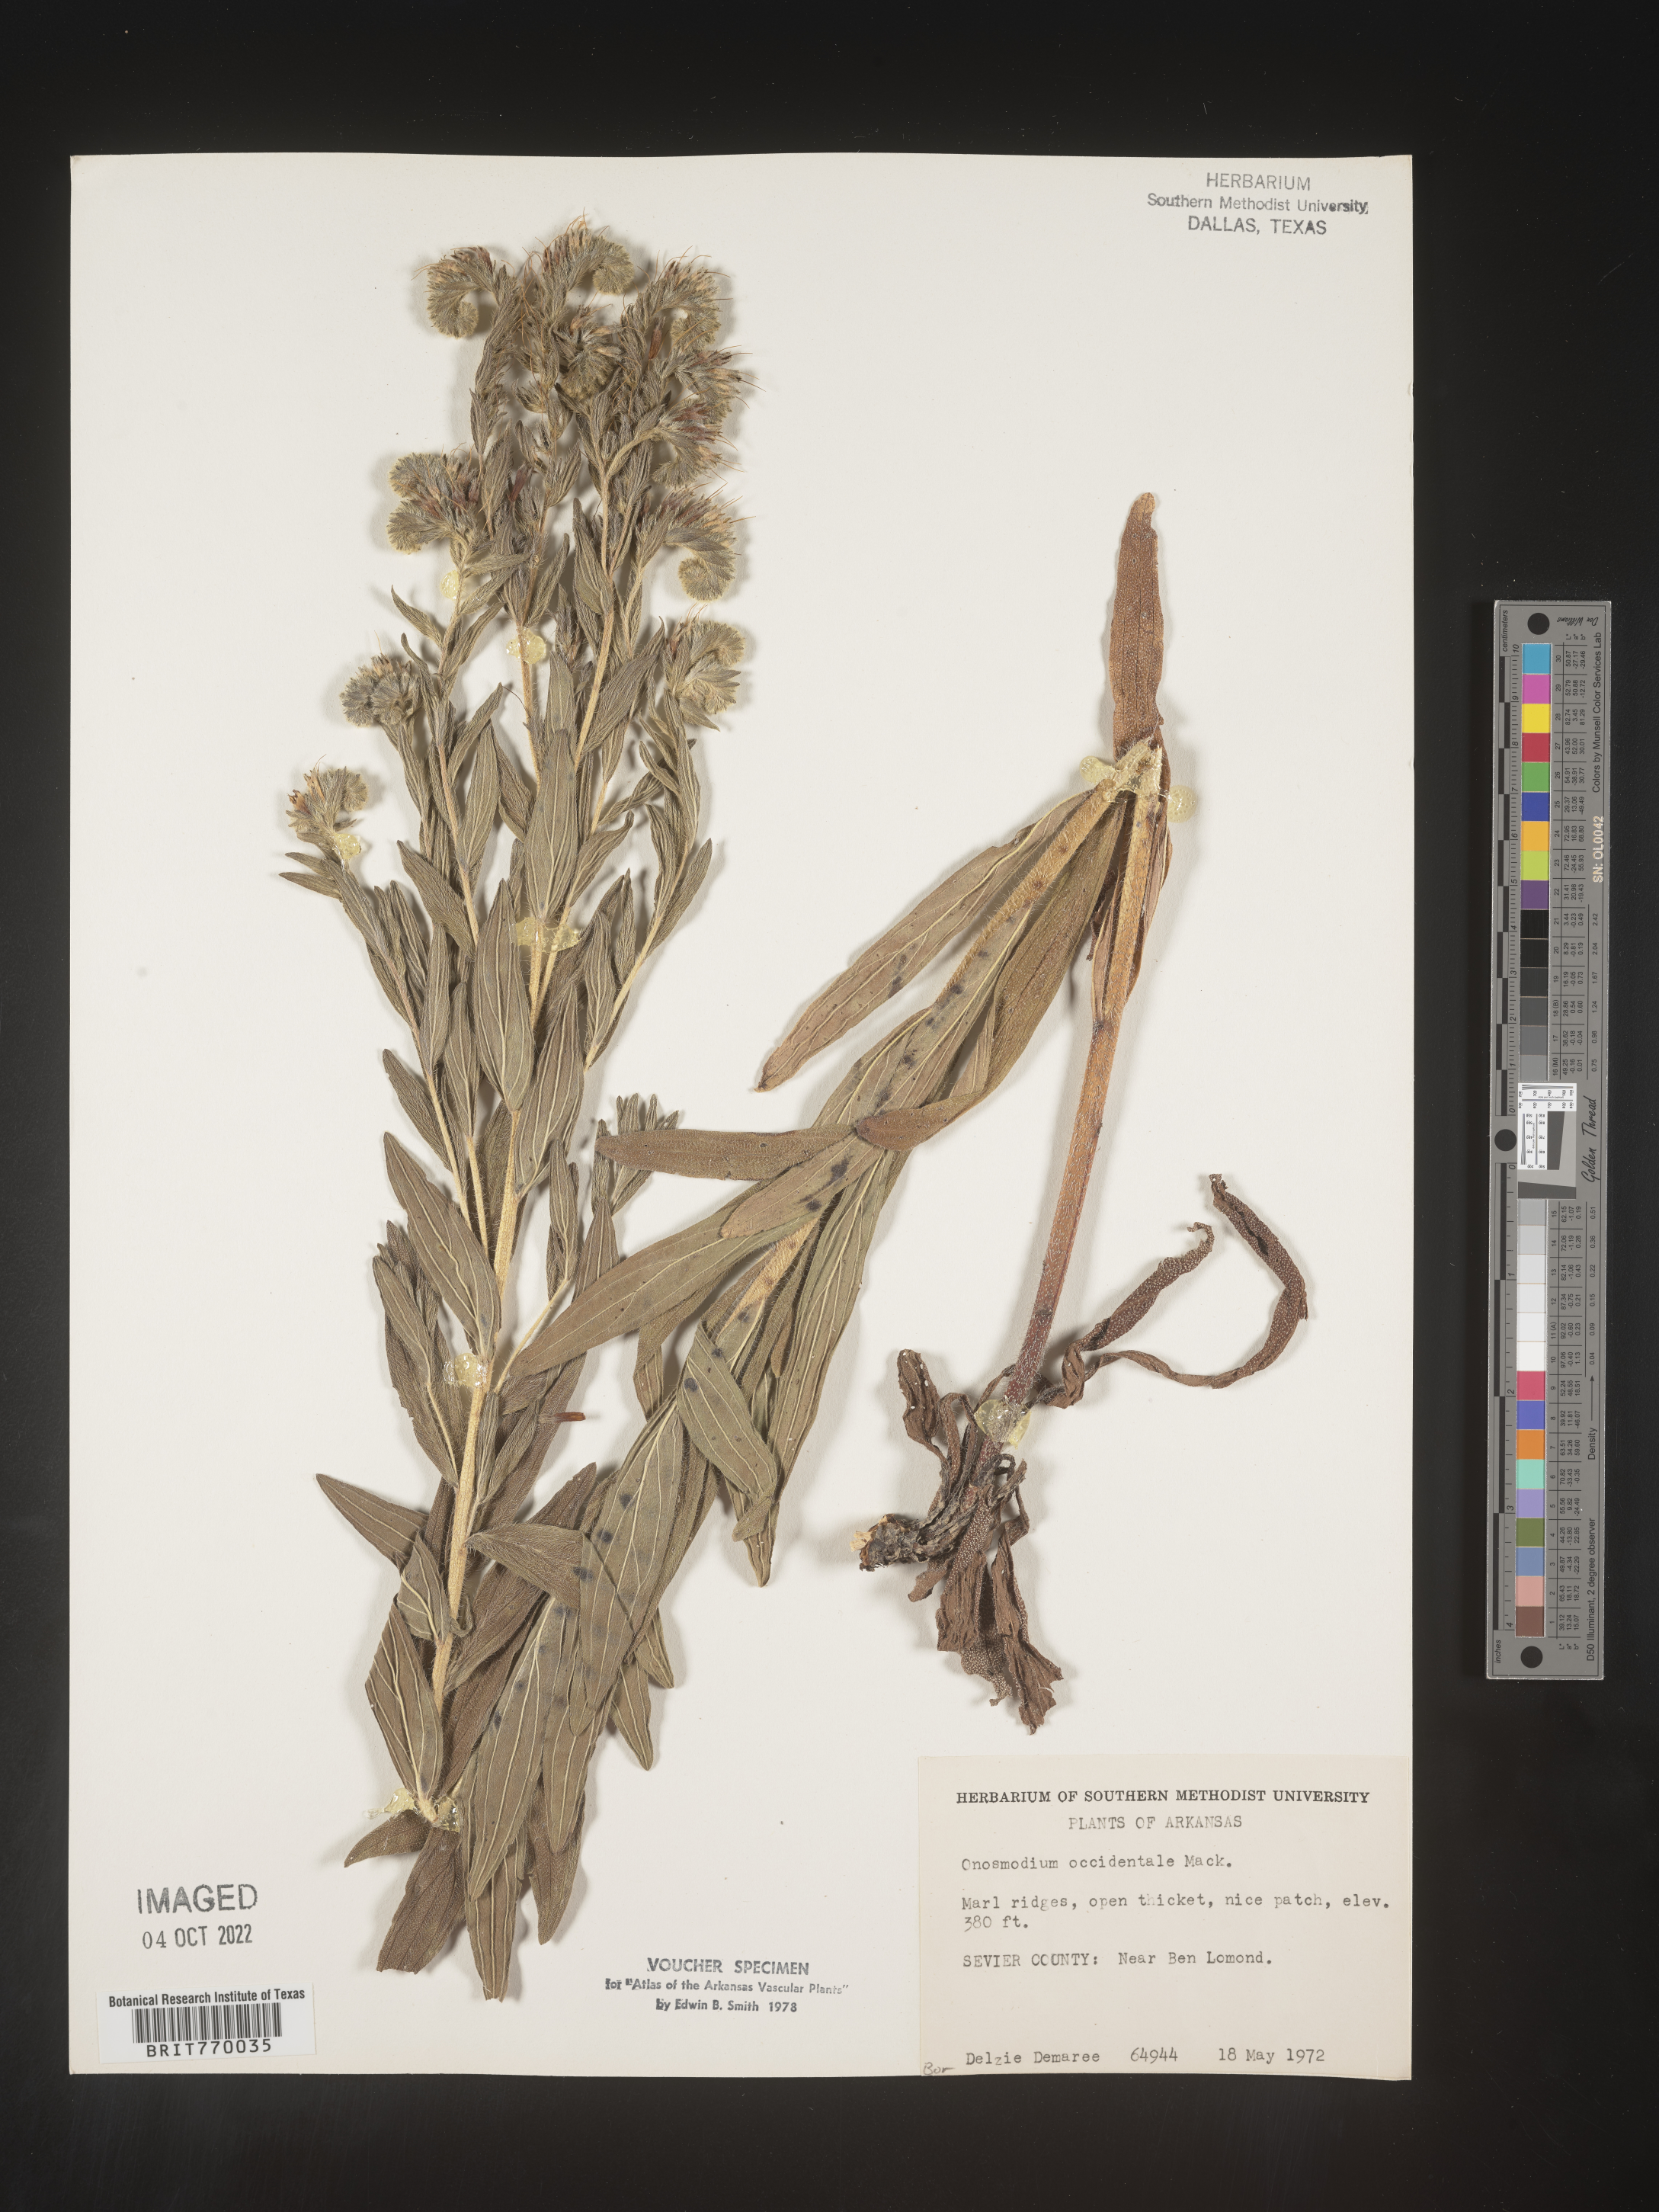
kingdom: Plantae
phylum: Tracheophyta
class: Magnoliopsida
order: Boraginales
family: Boraginaceae
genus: Lithospermum
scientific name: Lithospermum occidentale
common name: Western false gromwell
